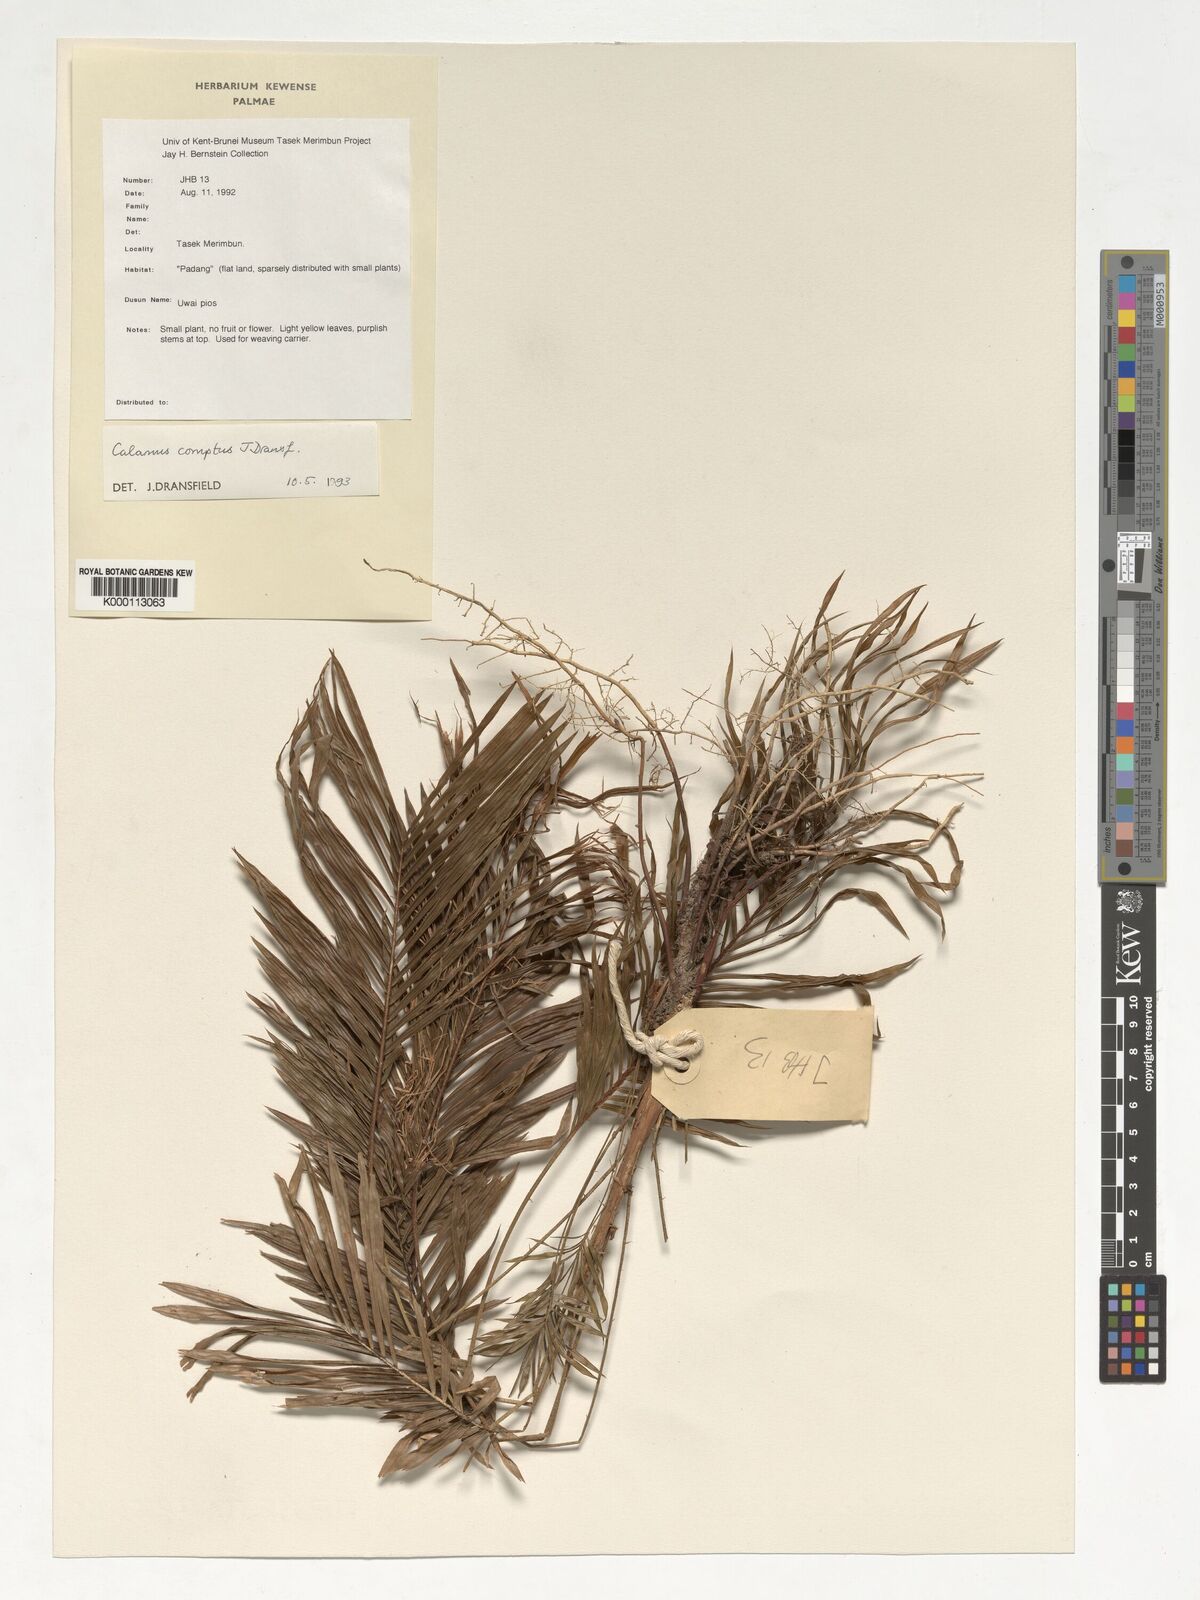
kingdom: Plantae
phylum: Tracheophyta
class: Liliopsida
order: Arecales
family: Arecaceae
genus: Calamus
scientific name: Calamus comptus
